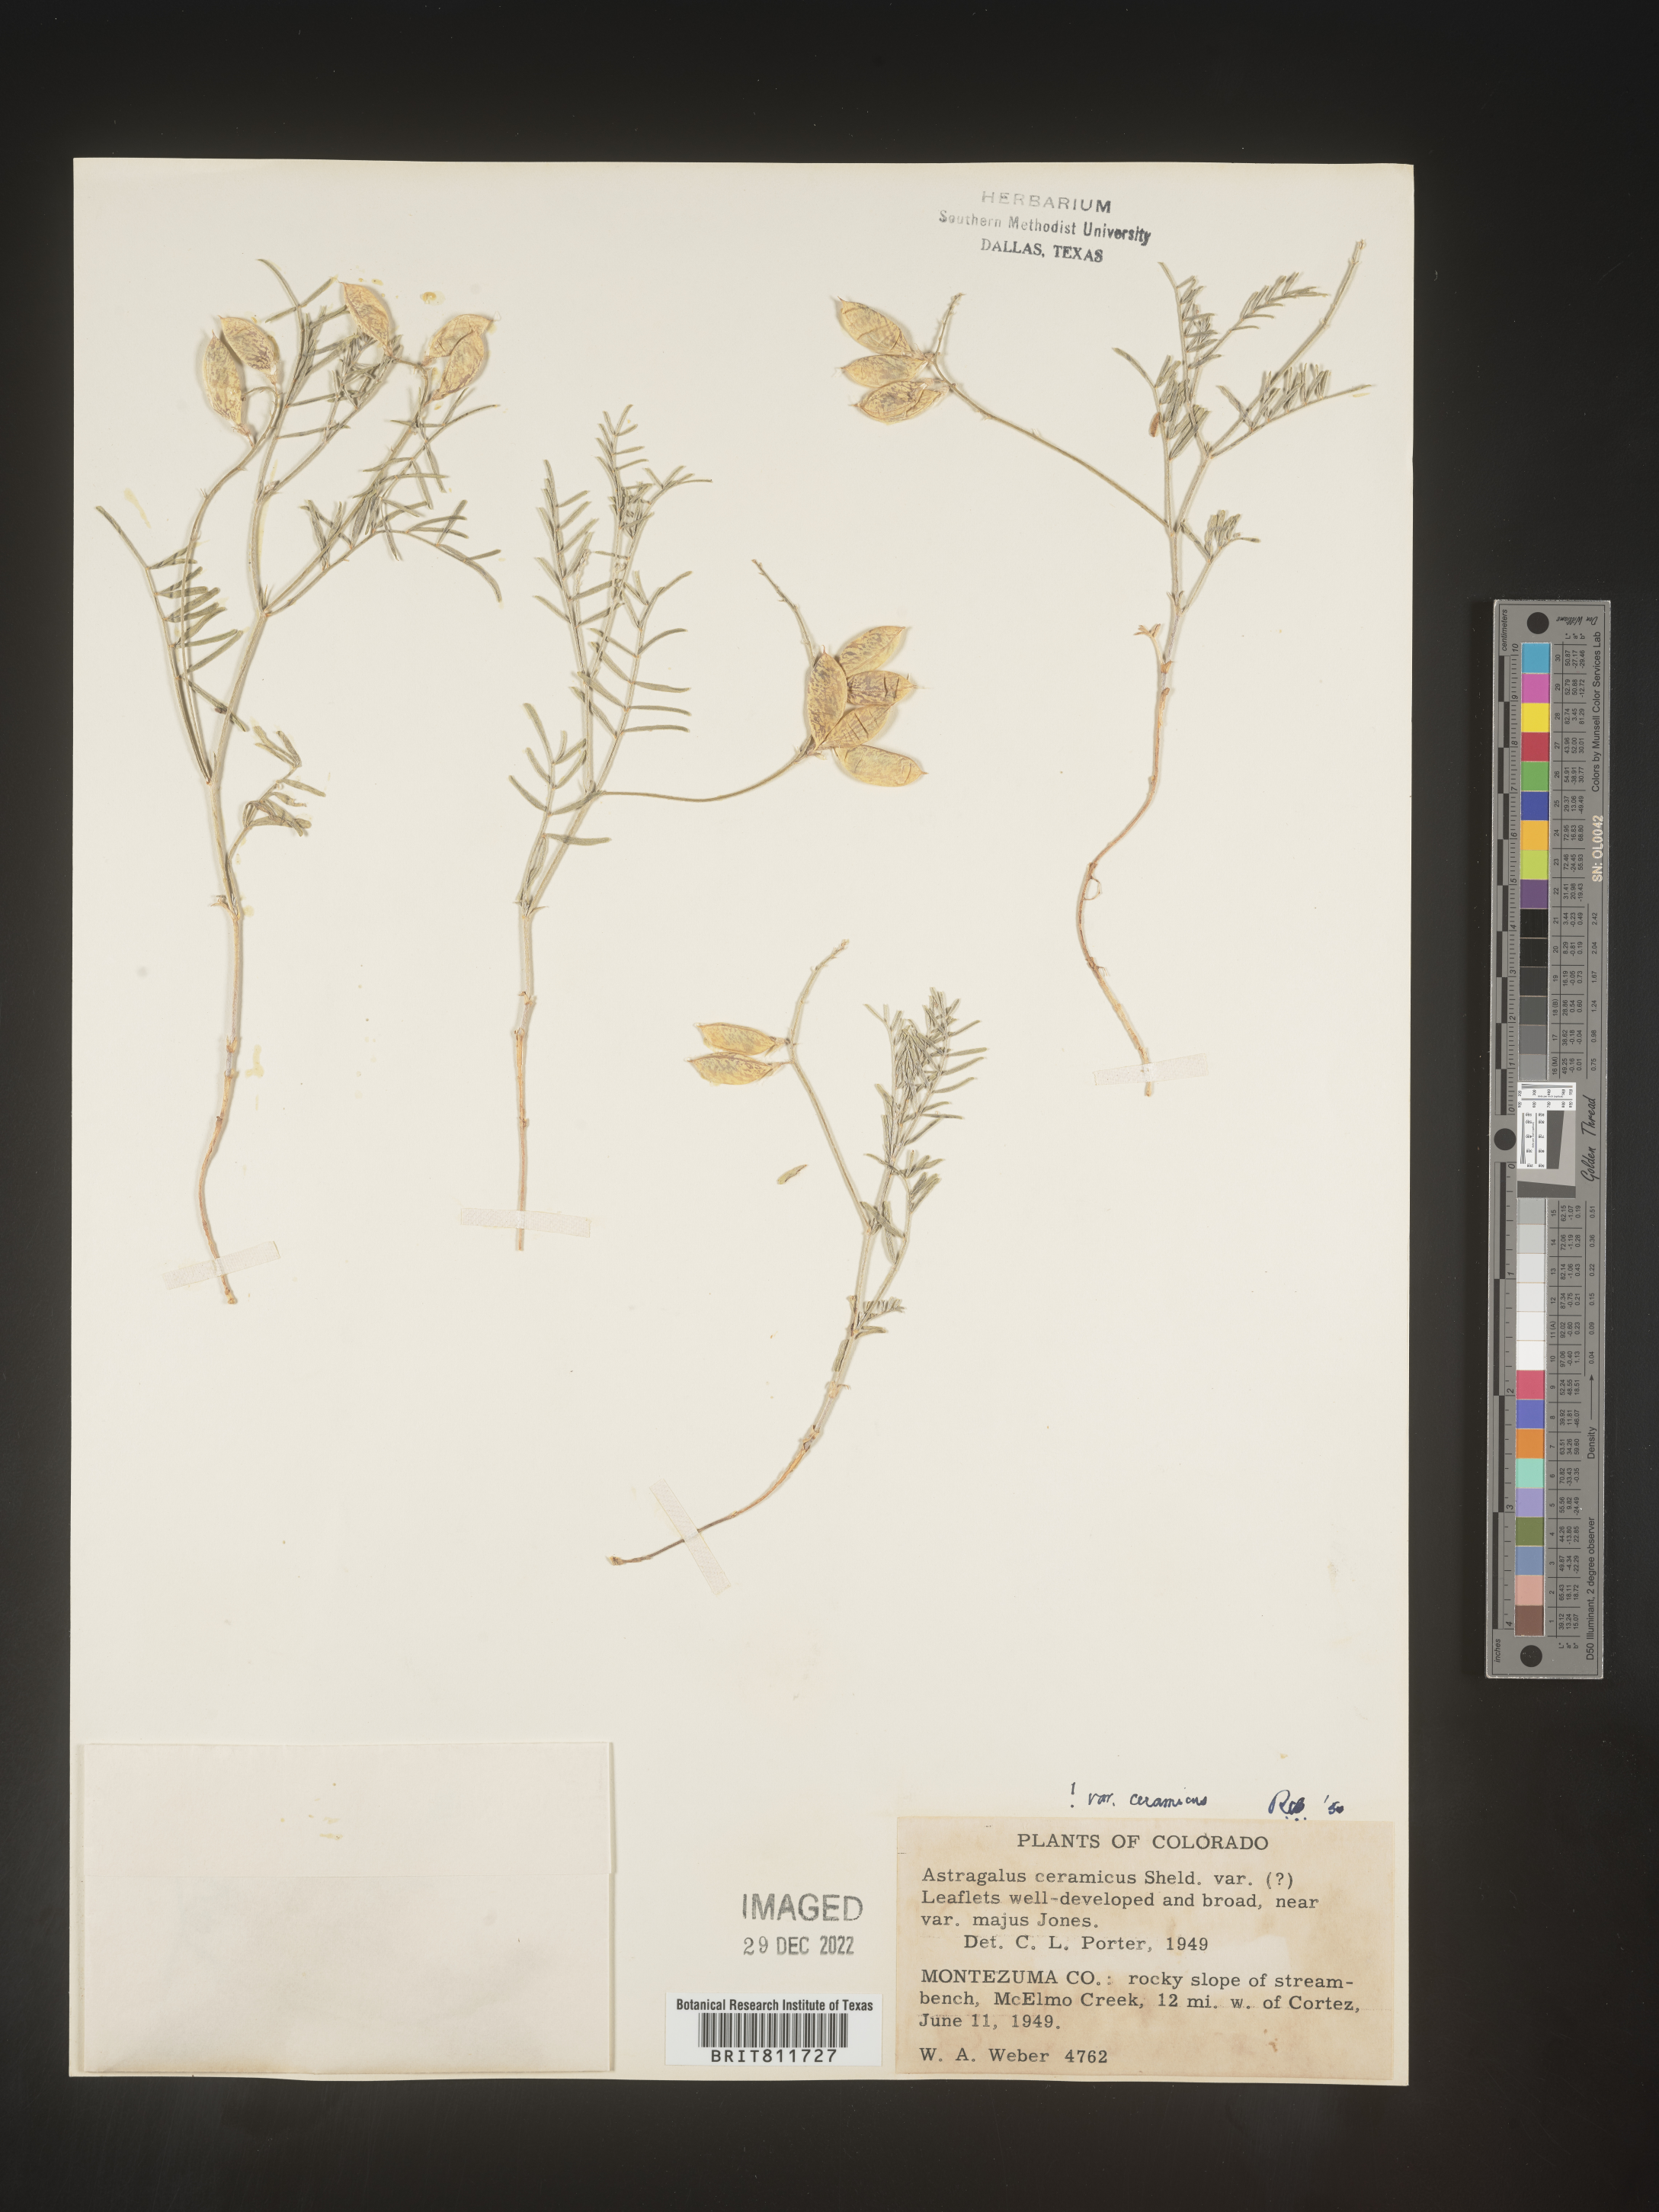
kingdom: Plantae
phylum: Tracheophyta
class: Magnoliopsida
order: Fabales
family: Fabaceae
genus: Astragalus
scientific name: Astragalus
